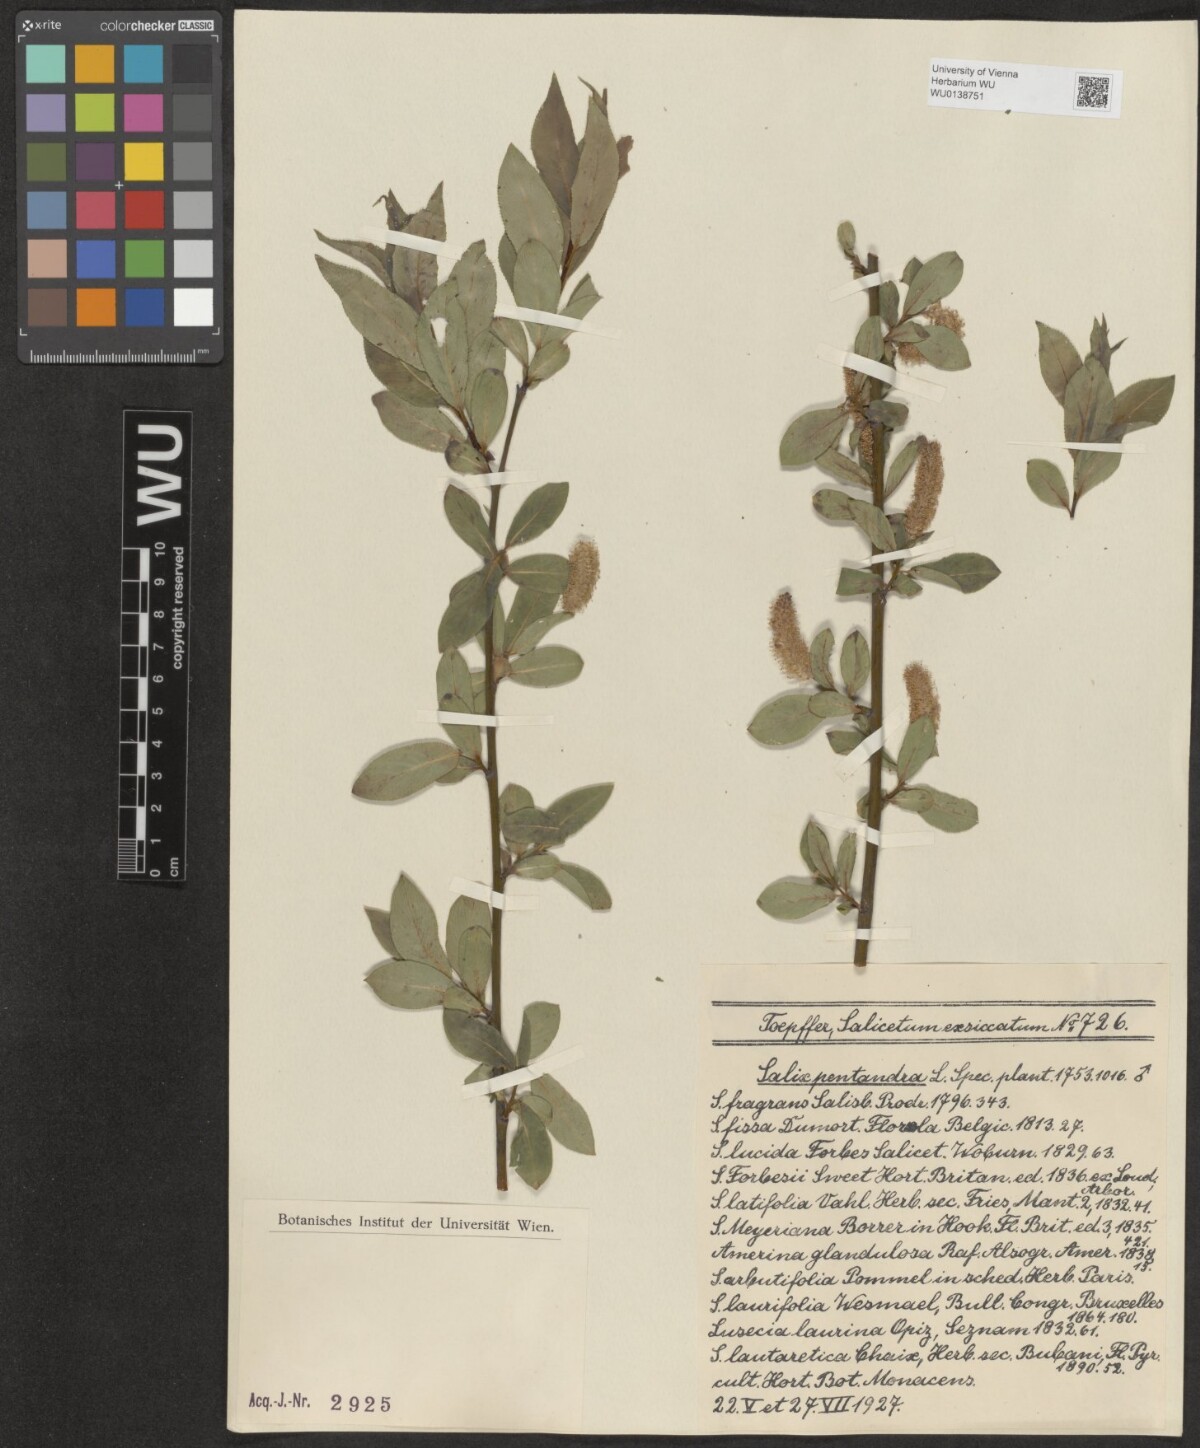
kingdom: Plantae
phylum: Tracheophyta
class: Magnoliopsida
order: Malpighiales
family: Salicaceae
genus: Salix
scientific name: Salix pentandra
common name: Bay willow
